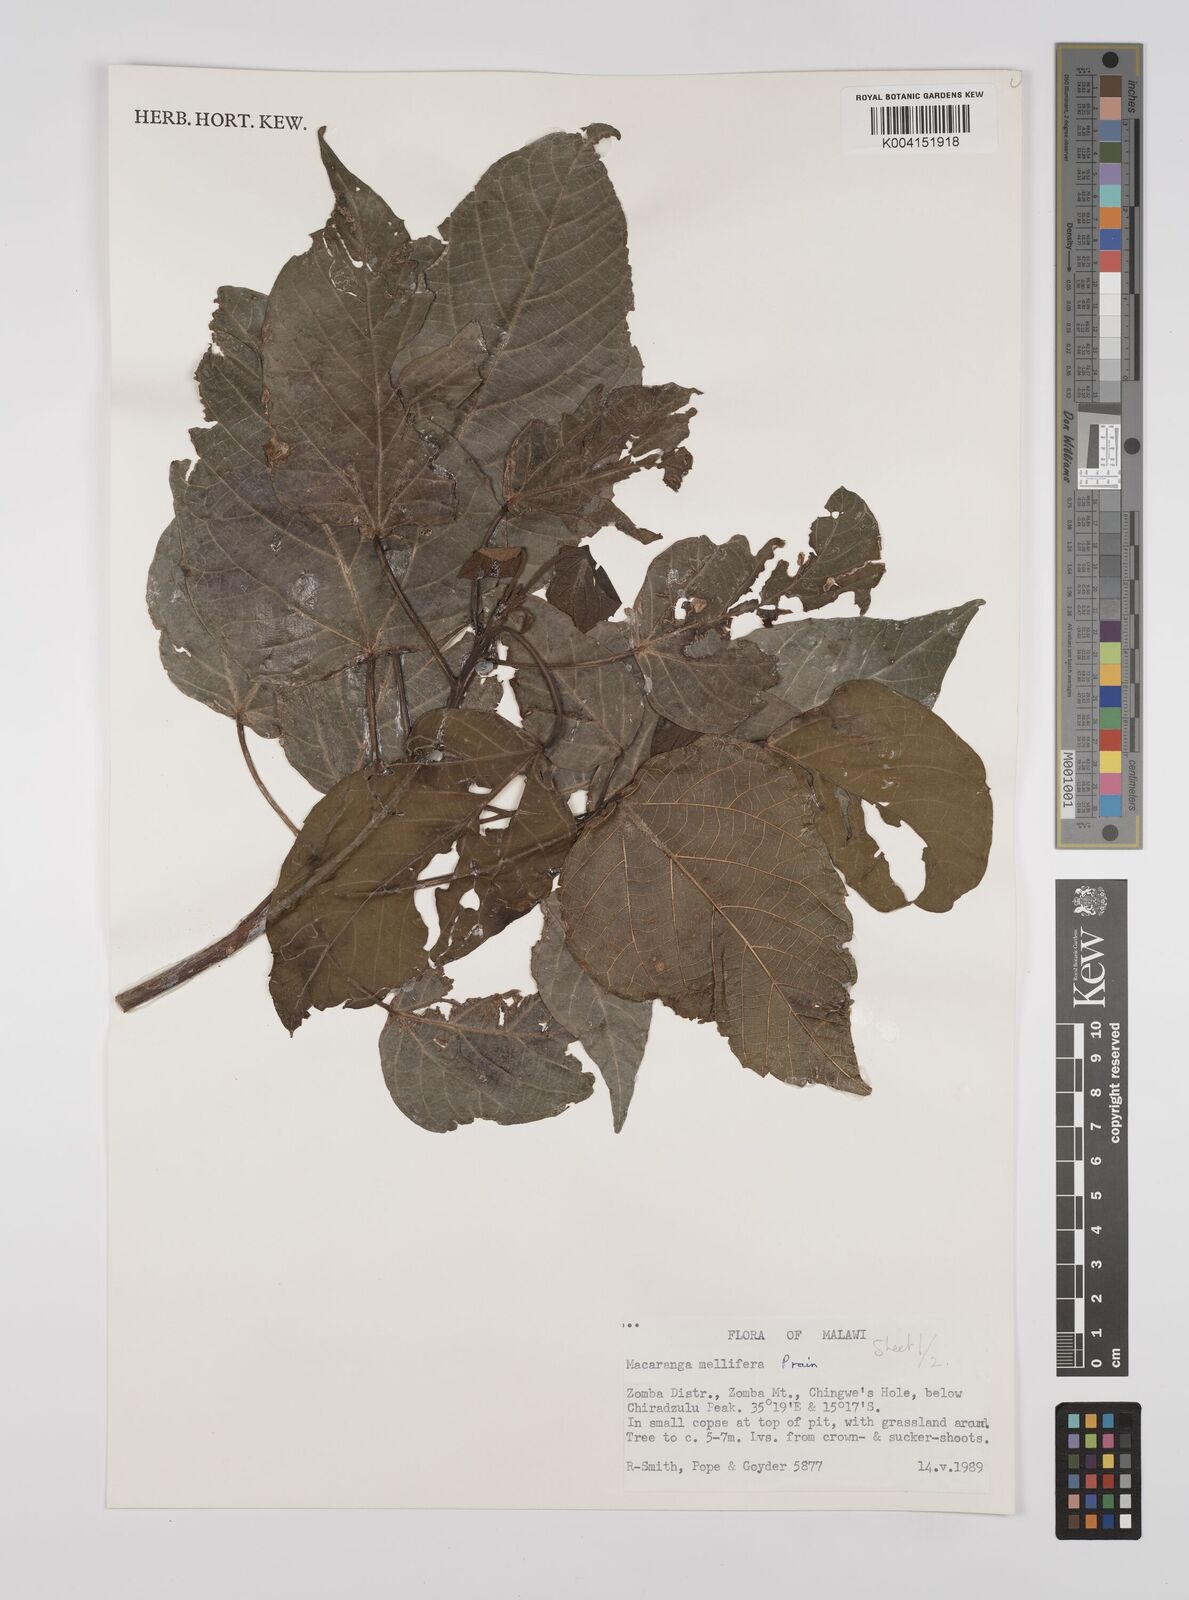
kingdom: Plantae
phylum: Tracheophyta
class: Magnoliopsida
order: Malpighiales
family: Euphorbiaceae
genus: Macaranga
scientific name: Macaranga mellifera
